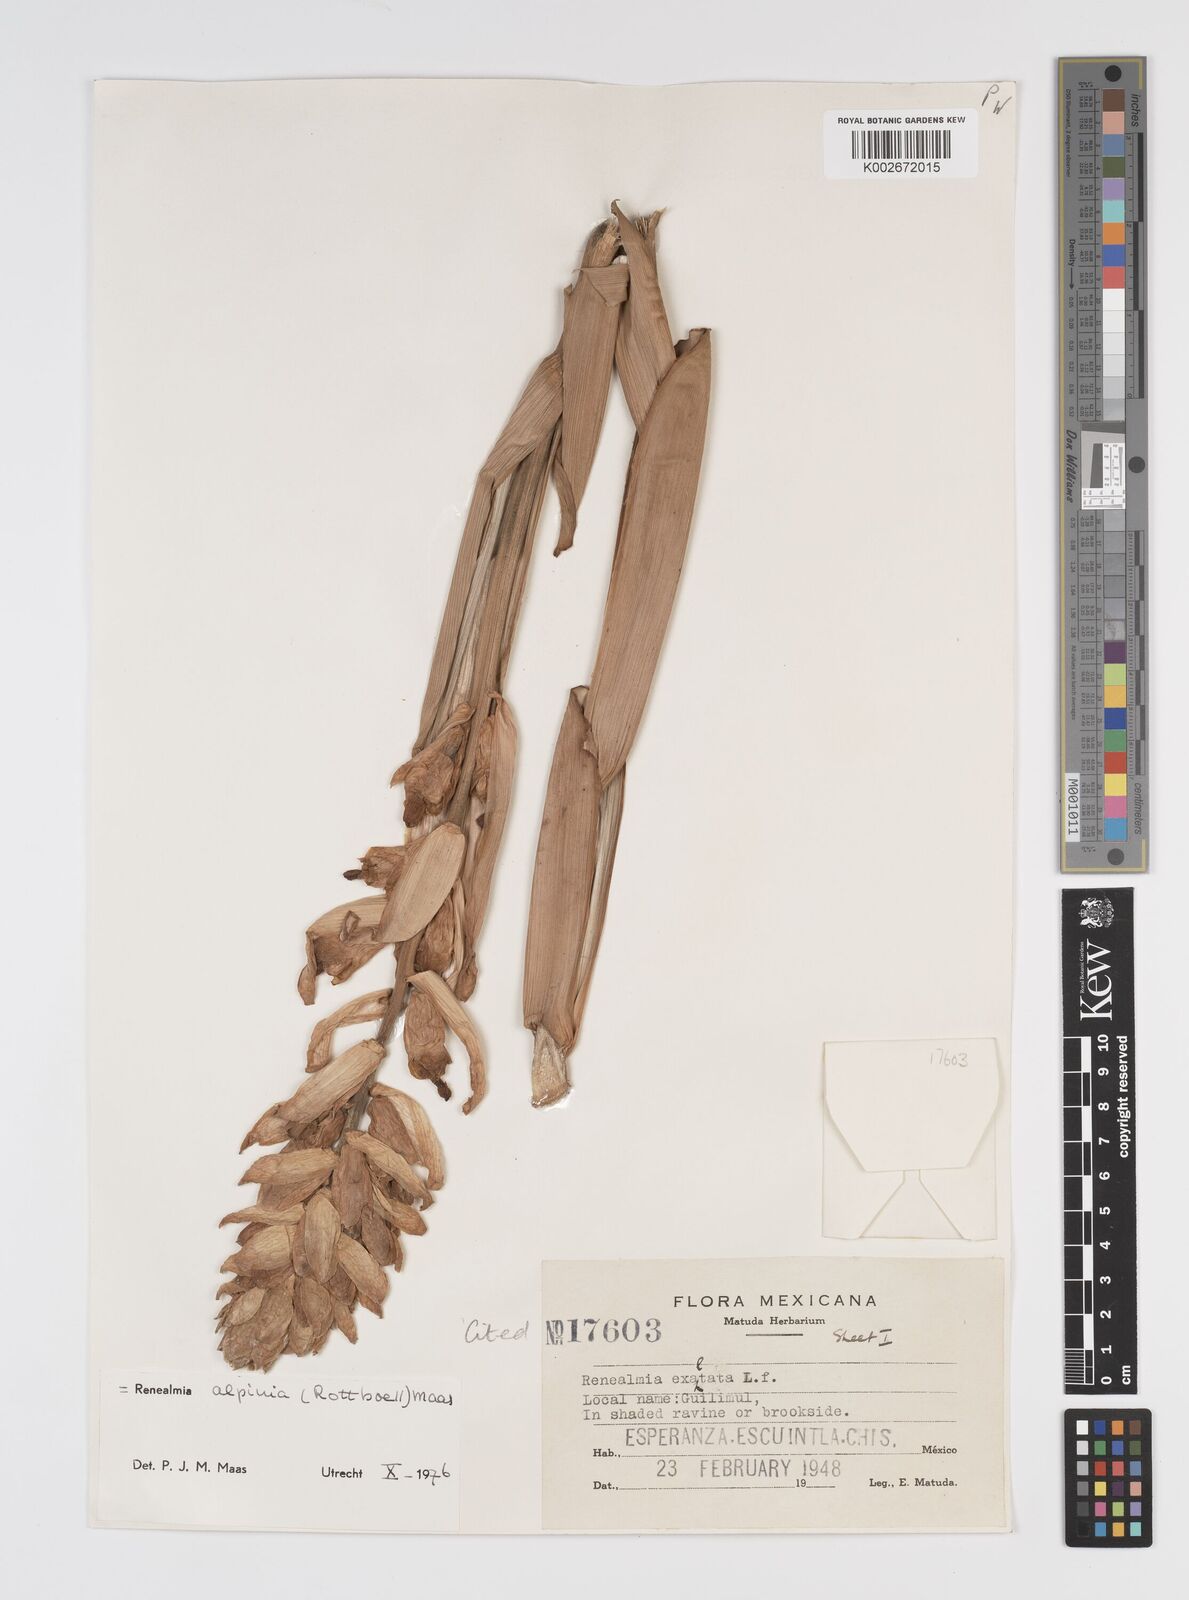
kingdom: Plantae
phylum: Tracheophyta
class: Liliopsida
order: Zingiberales
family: Zingiberaceae
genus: Renealmia
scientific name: Renealmia alpinia
